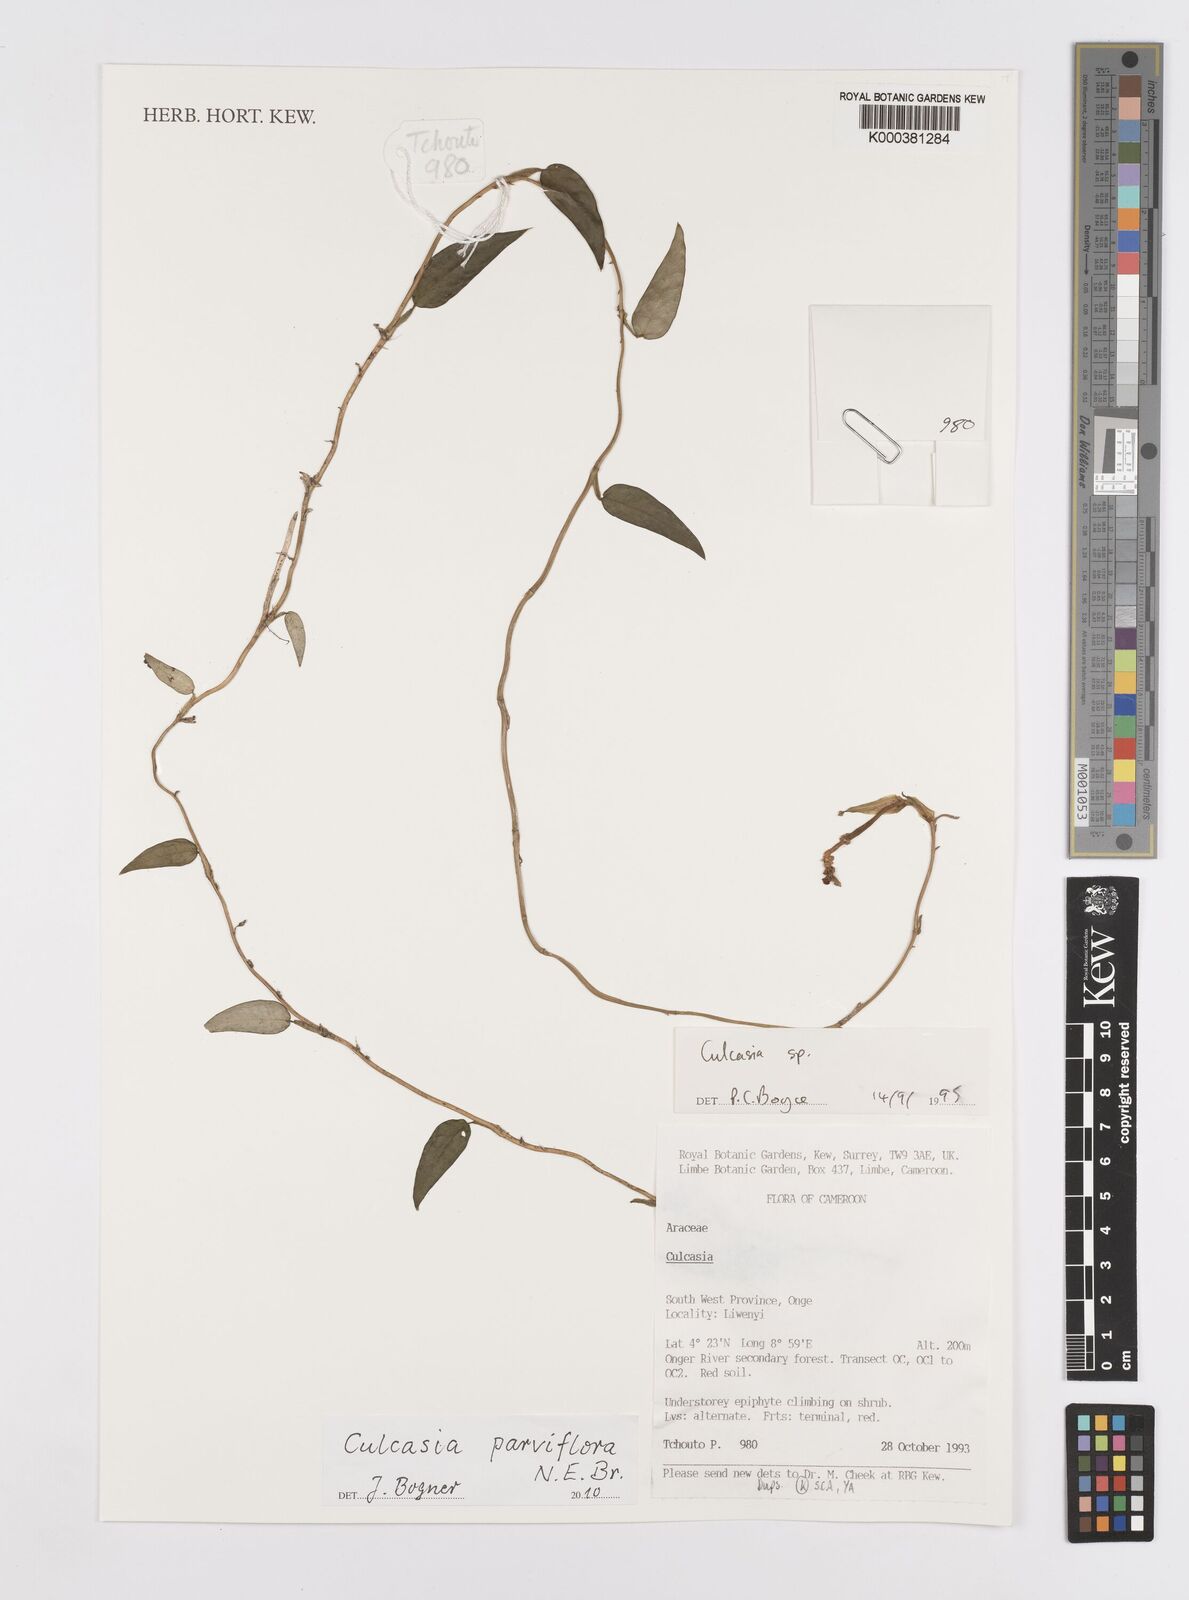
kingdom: Plantae
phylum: Tracheophyta
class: Liliopsida
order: Alismatales
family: Araceae
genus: Culcasia
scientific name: Culcasia parviflora
